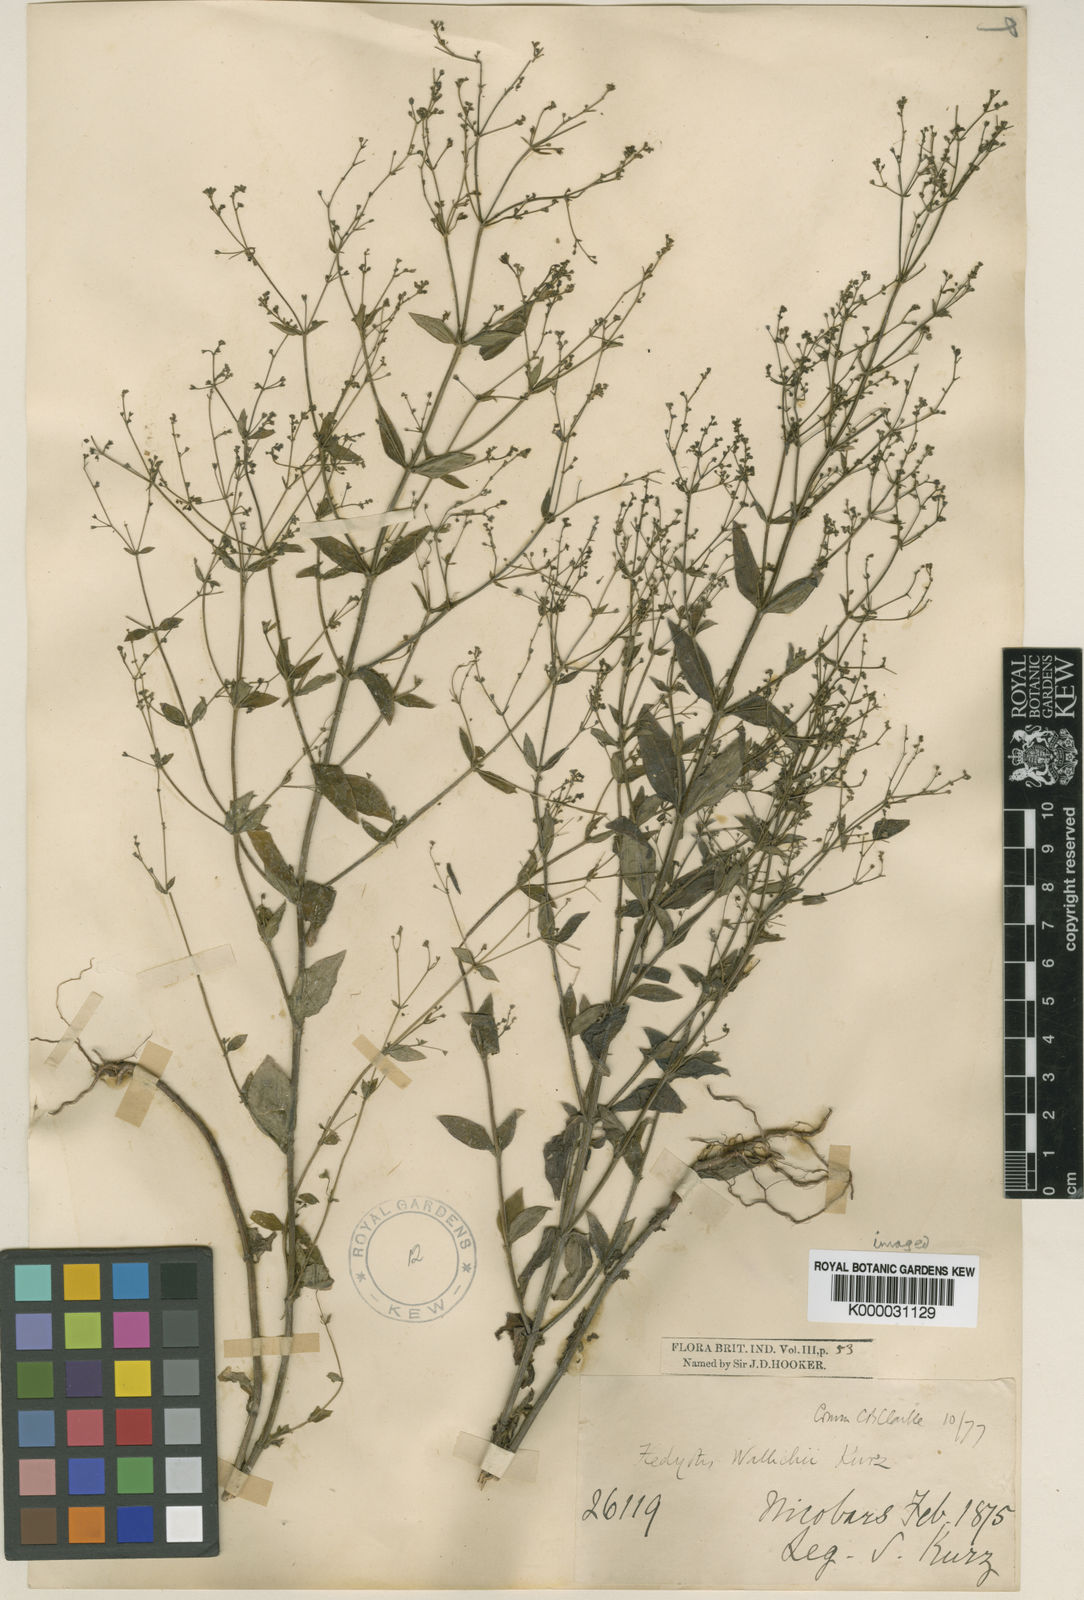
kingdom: Plantae
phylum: Tracheophyta
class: Magnoliopsida
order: Gentianales
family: Rubiaceae
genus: Hedyotis
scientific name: Hedyotis kurzii
